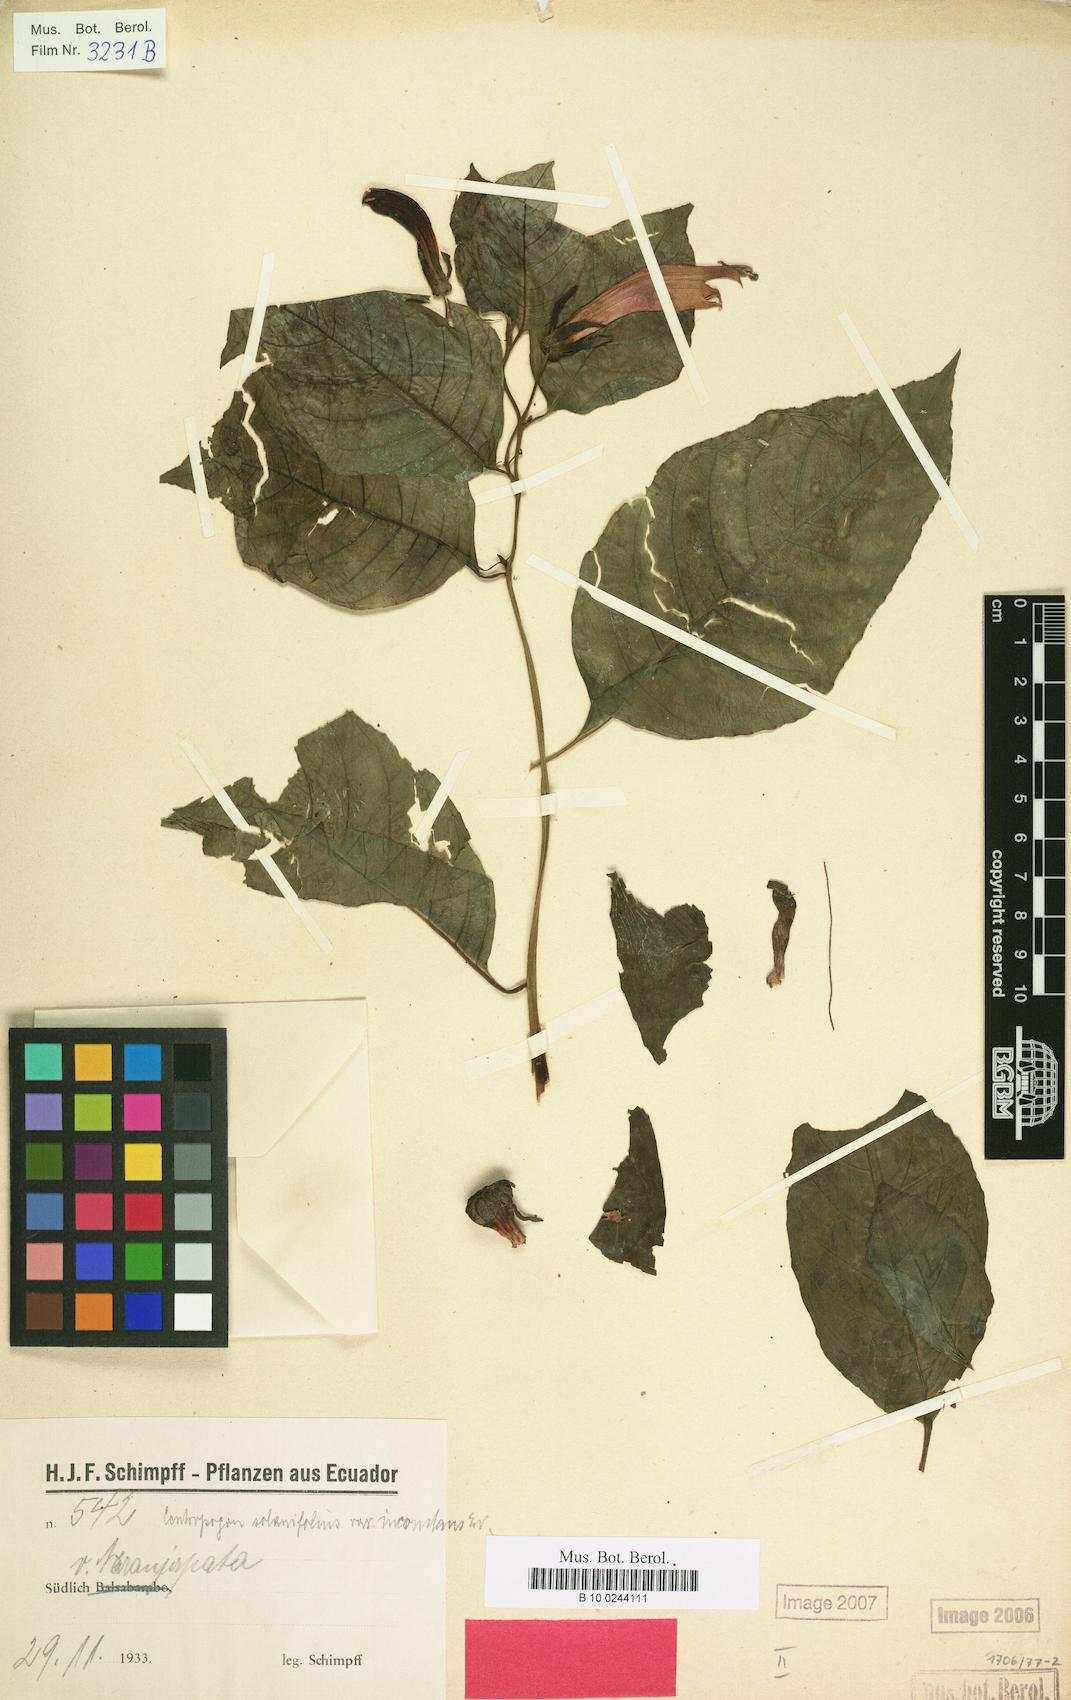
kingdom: Plantae
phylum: Tracheophyta
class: Magnoliopsida
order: Asterales
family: Campanulaceae
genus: Centropogon
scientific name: Centropogon solanifolius
